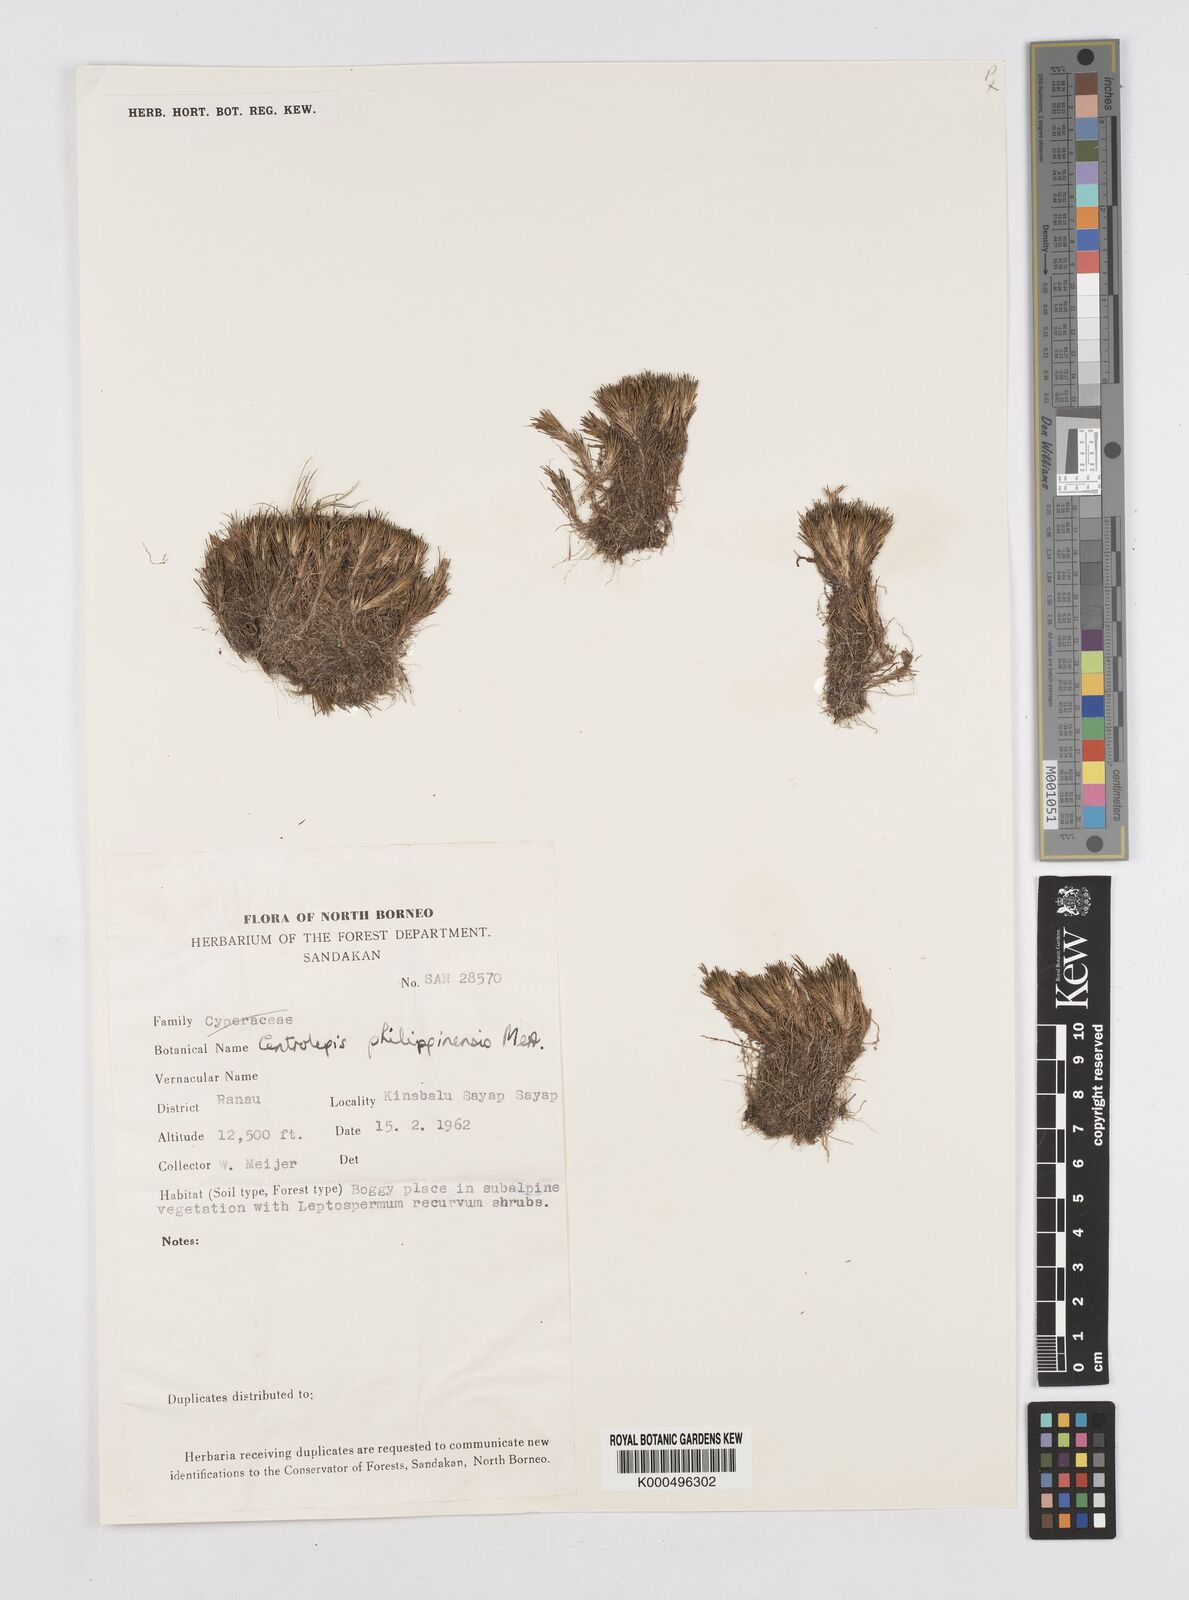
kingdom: Plantae
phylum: Tracheophyta
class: Liliopsida
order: Poales
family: Restionaceae
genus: Centrolepis
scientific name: Centrolepis philippinensis
